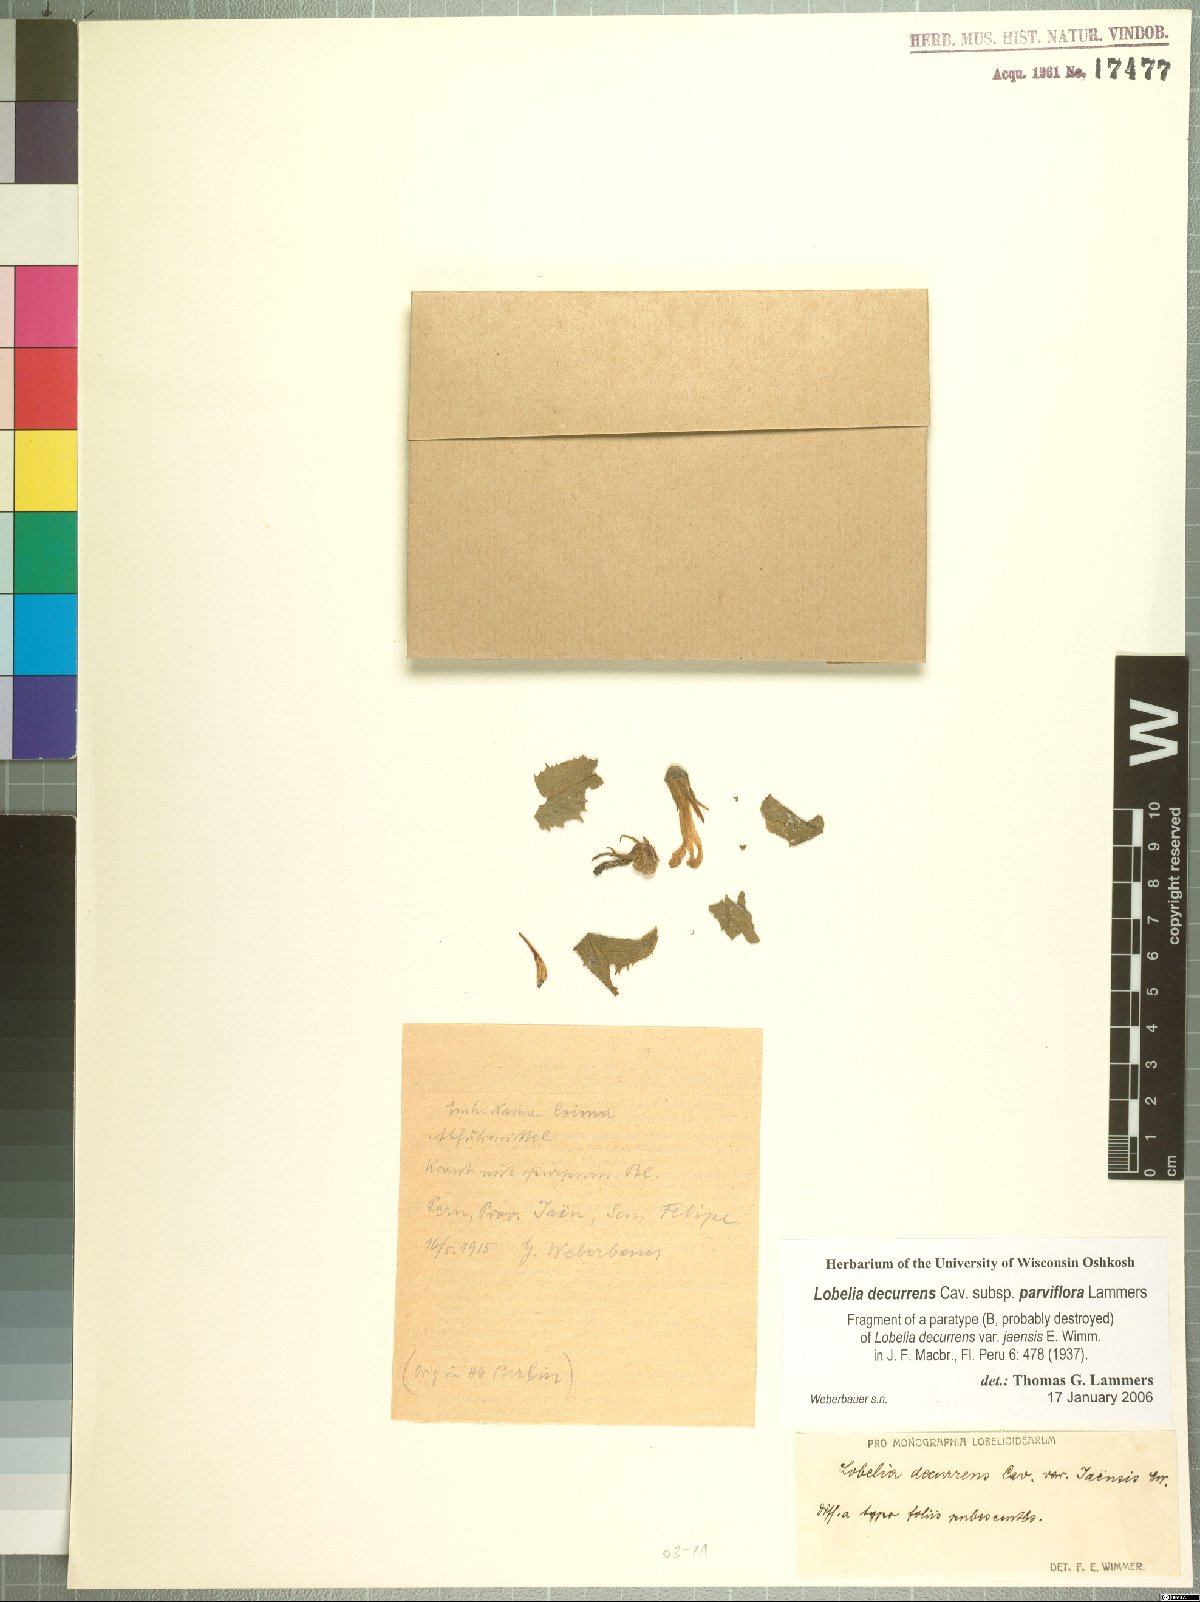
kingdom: Plantae
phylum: Tracheophyta
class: Magnoliopsida
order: Asterales
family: Campanulaceae
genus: Lobelia
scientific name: Lobelia decurrens
